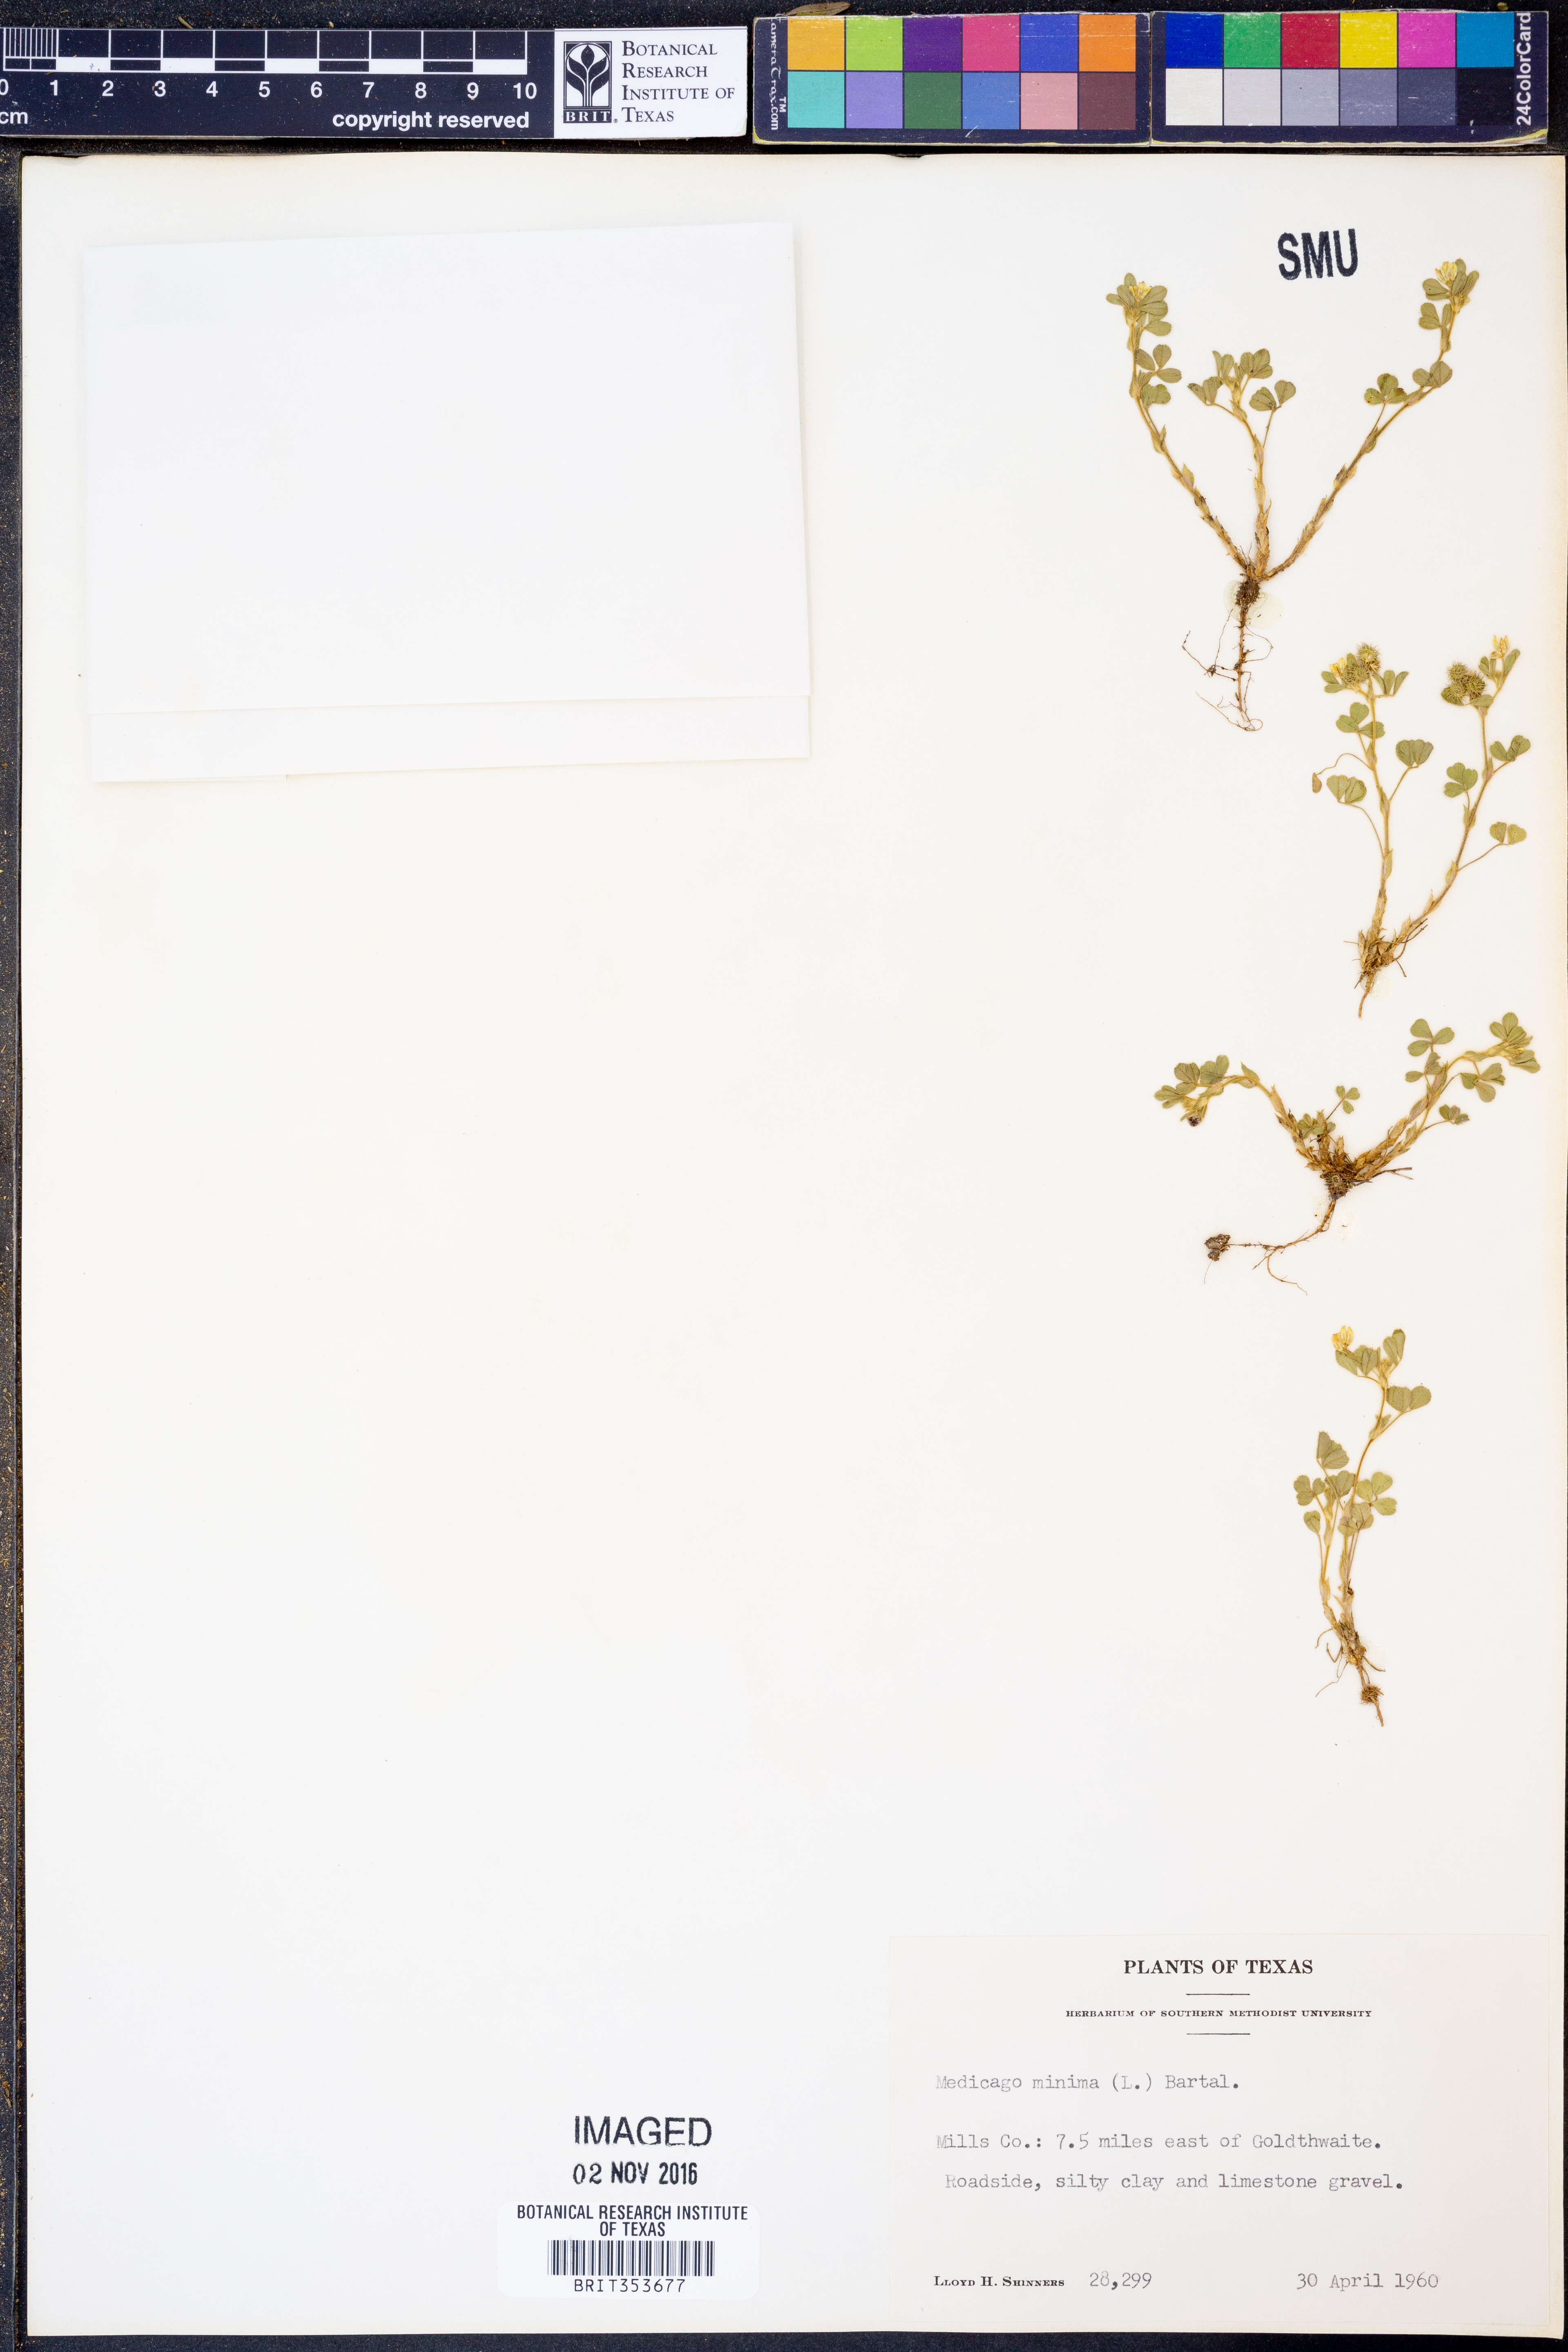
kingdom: Plantae
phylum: Tracheophyta
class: Magnoliopsida
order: Fabales
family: Fabaceae
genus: Medicago
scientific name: Medicago minima
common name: Little bur-clover
